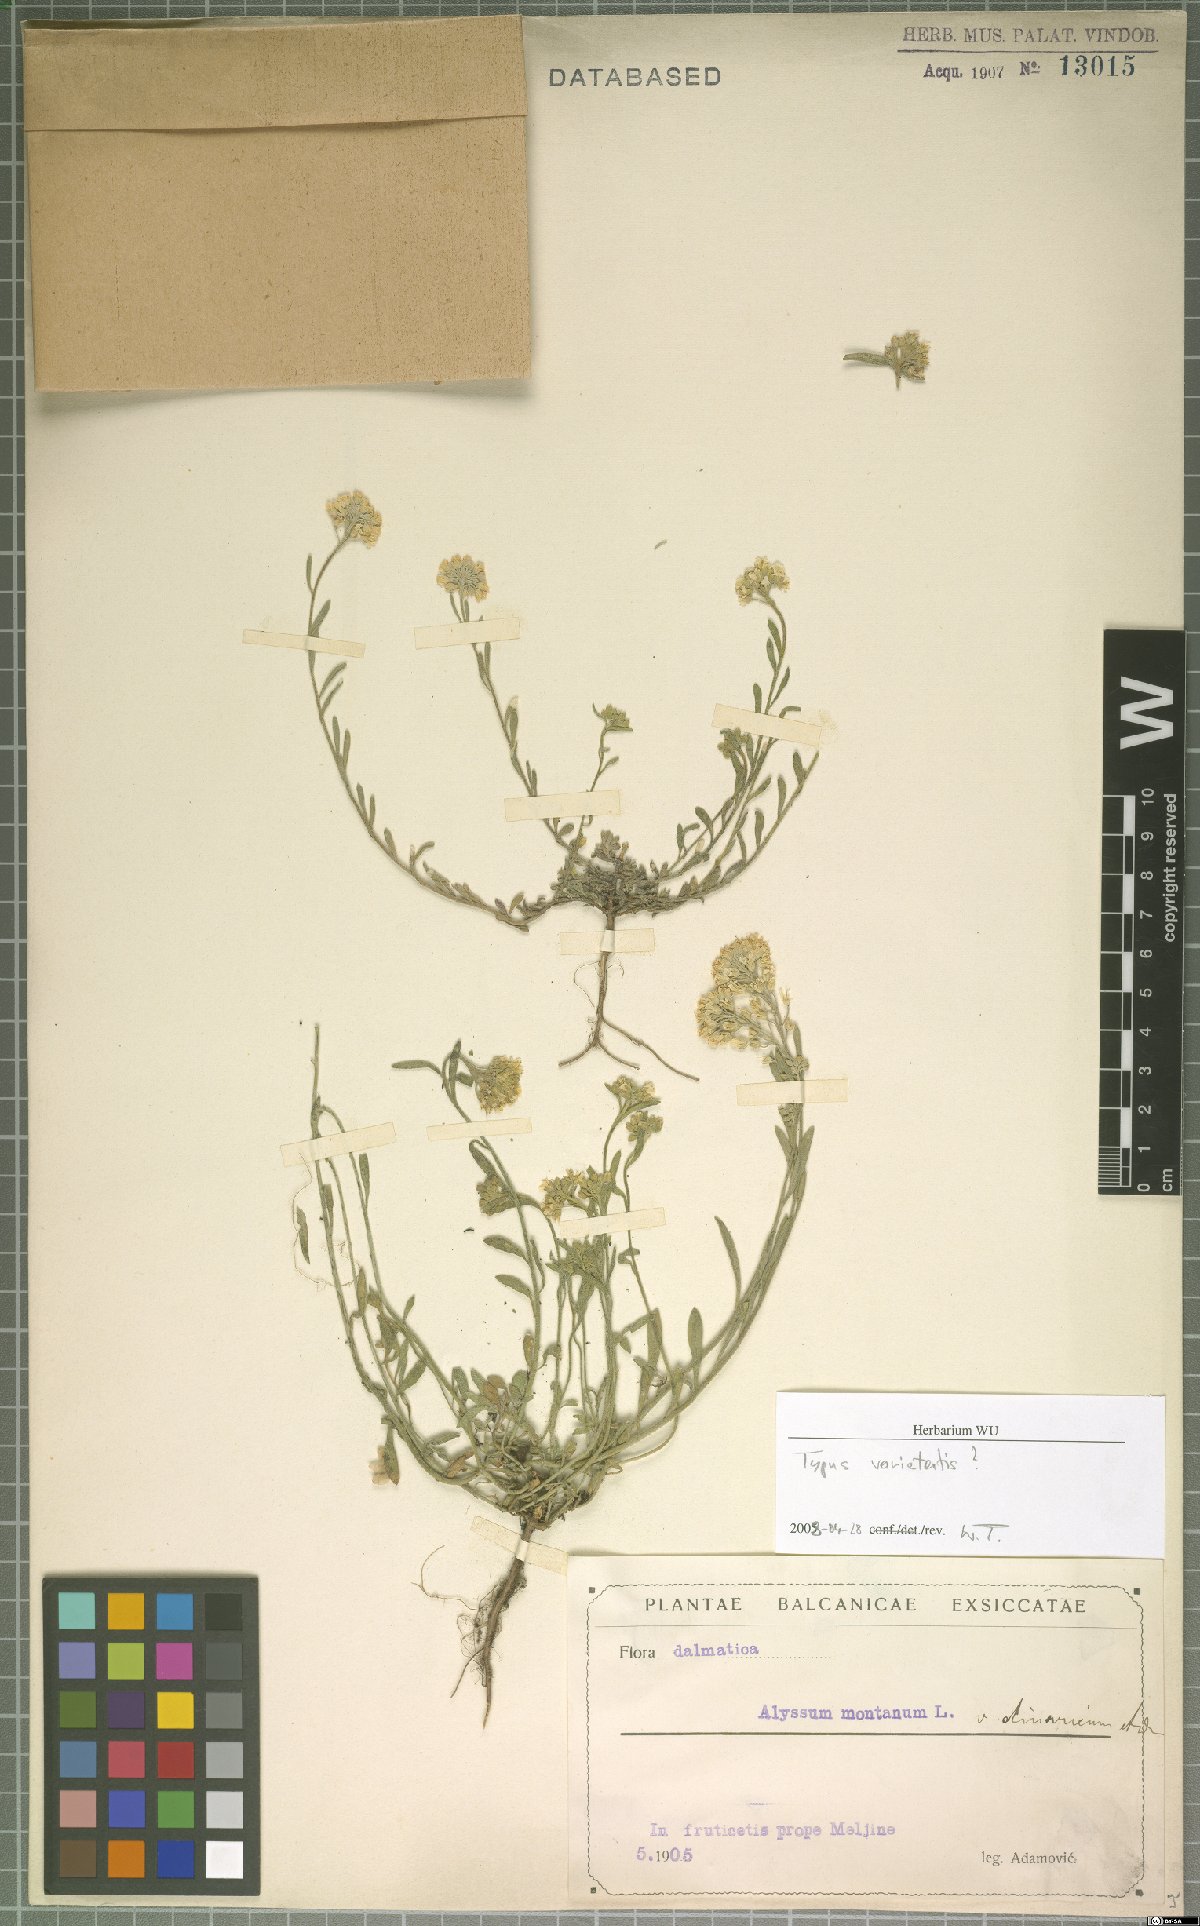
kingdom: Plantae
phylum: Tracheophyta
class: Magnoliopsida
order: Brassicales
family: Brassicaceae
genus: Alyssum
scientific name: Alyssum montanum
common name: Mountain alison
